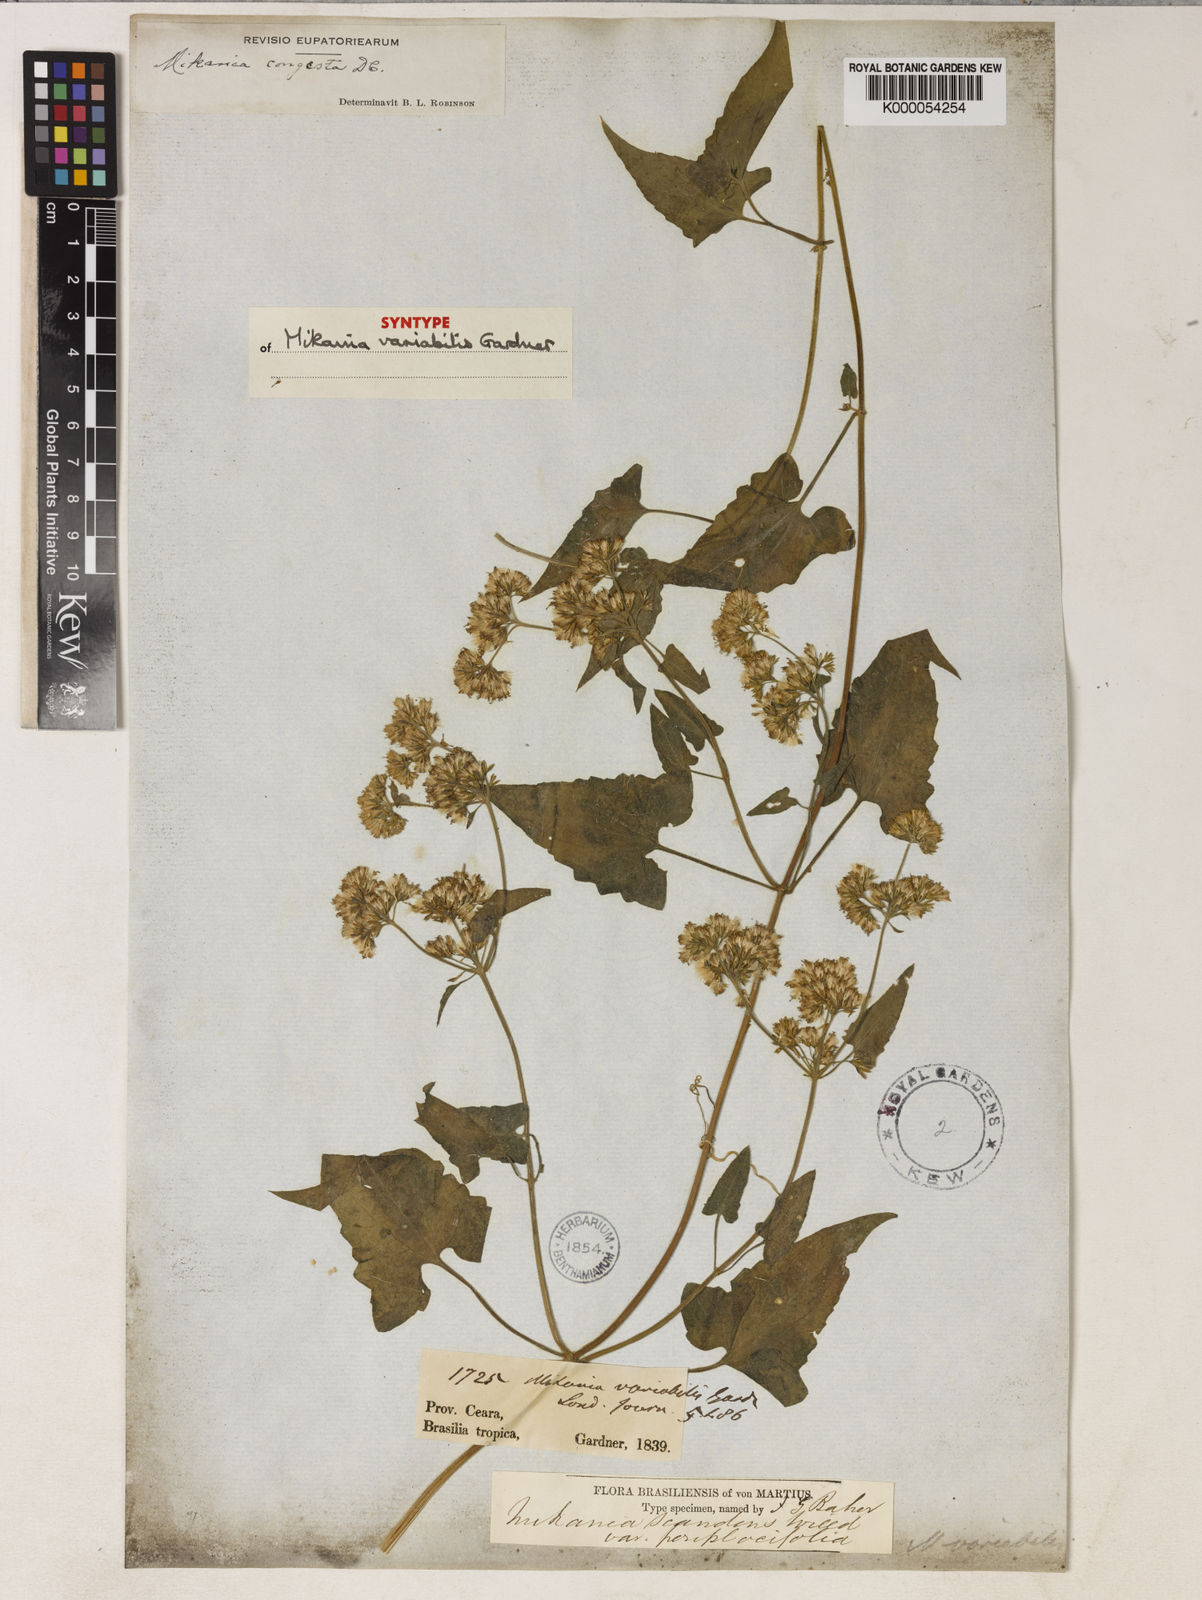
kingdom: Plantae
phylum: Tracheophyta
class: Magnoliopsida
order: Asterales
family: Asteraceae
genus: Mikania
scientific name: Mikania congesta
